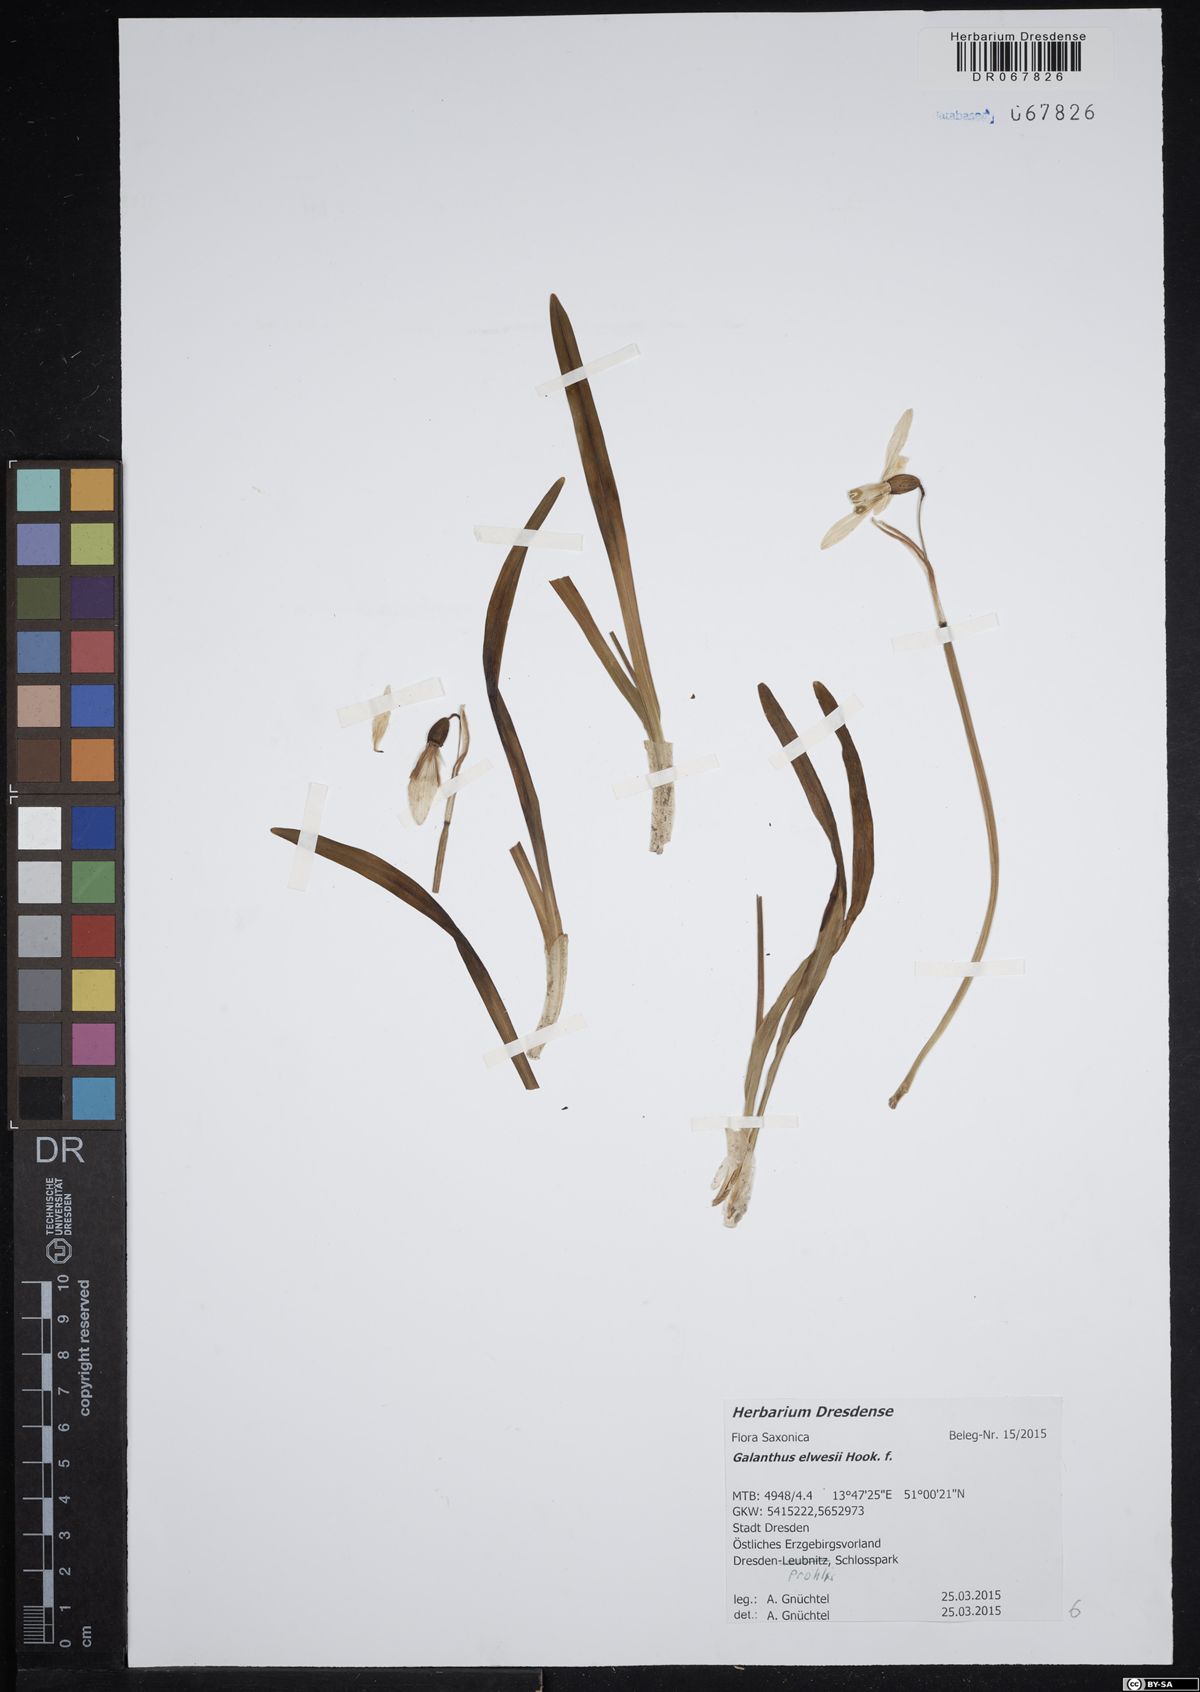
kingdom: Plantae
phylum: Tracheophyta
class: Liliopsida
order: Asparagales
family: Amaryllidaceae
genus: Galanthus
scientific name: Galanthus elwesii
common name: Greater snowdrop
